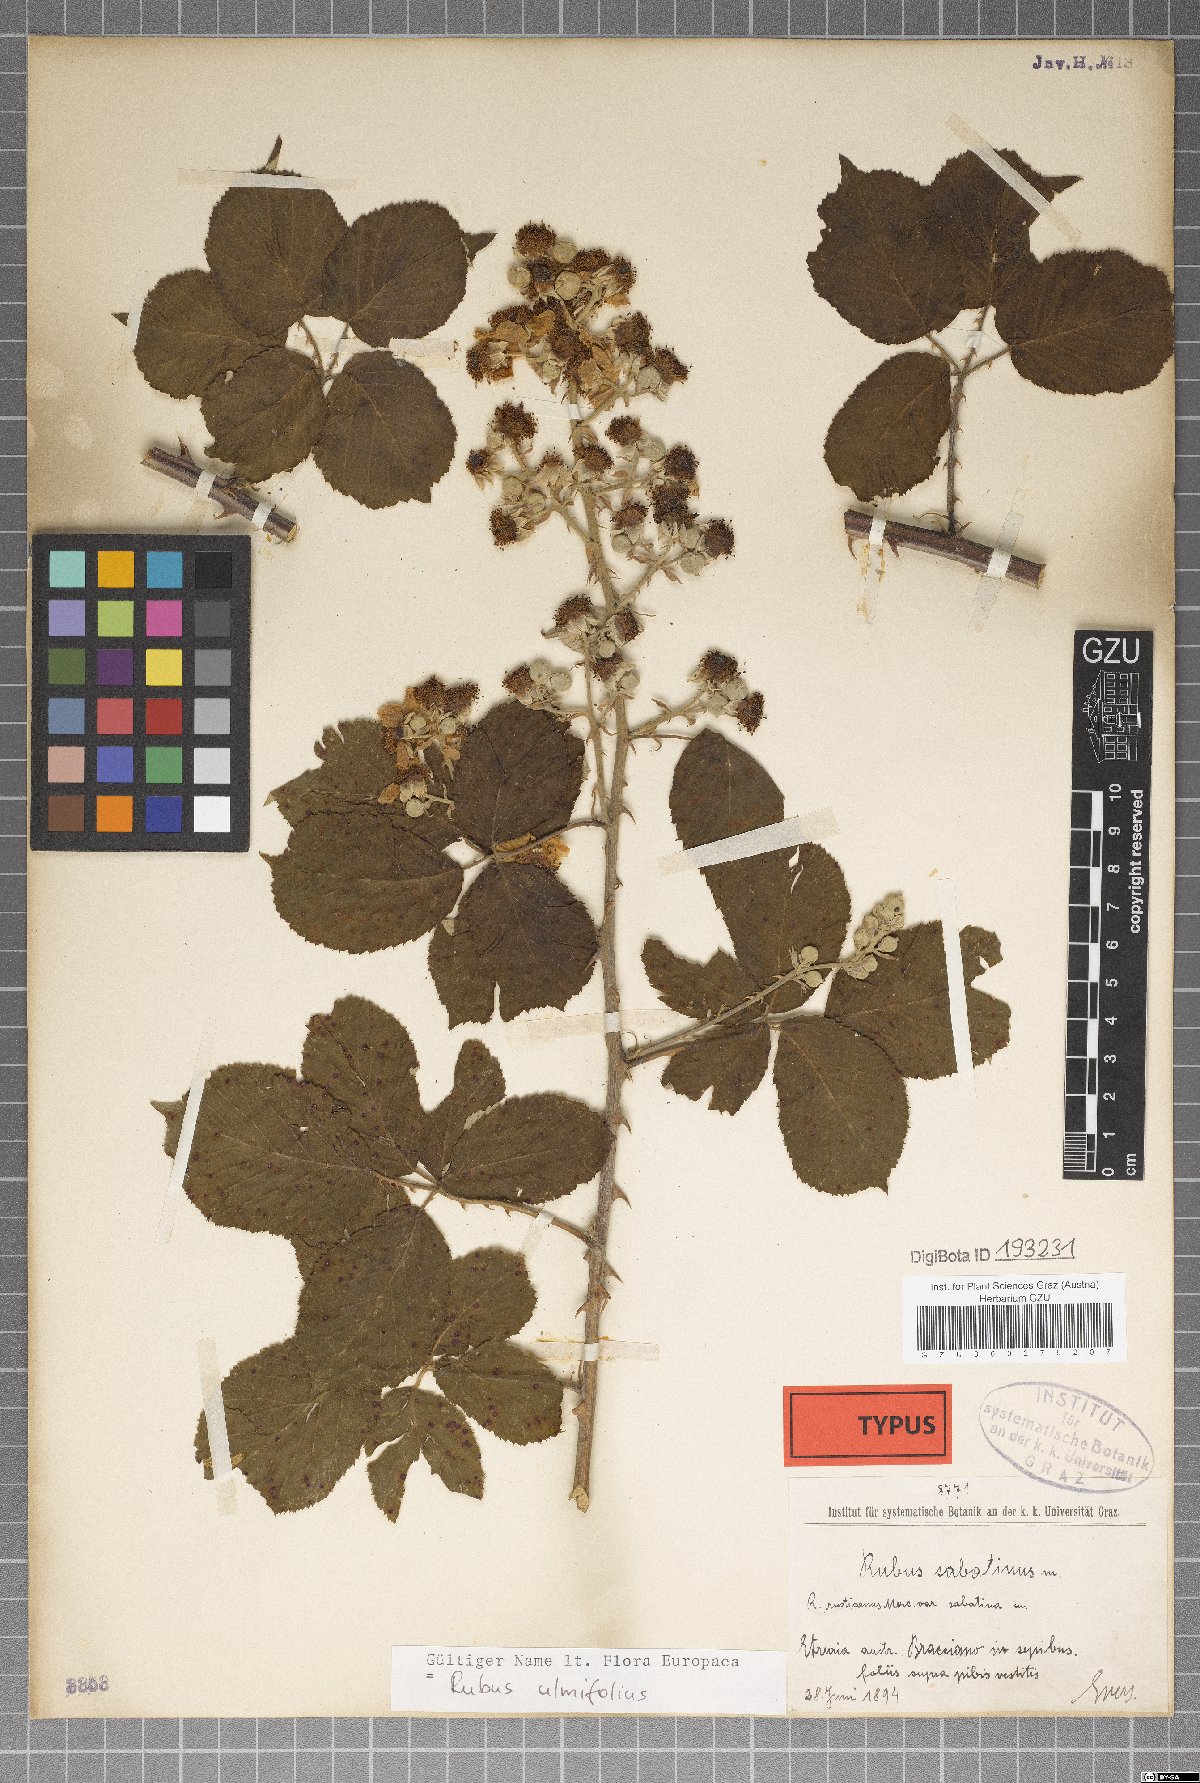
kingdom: Plantae
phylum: Tracheophyta
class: Magnoliopsida
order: Rosales
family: Rosaceae
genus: Rubus
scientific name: Rubus sabatinus
